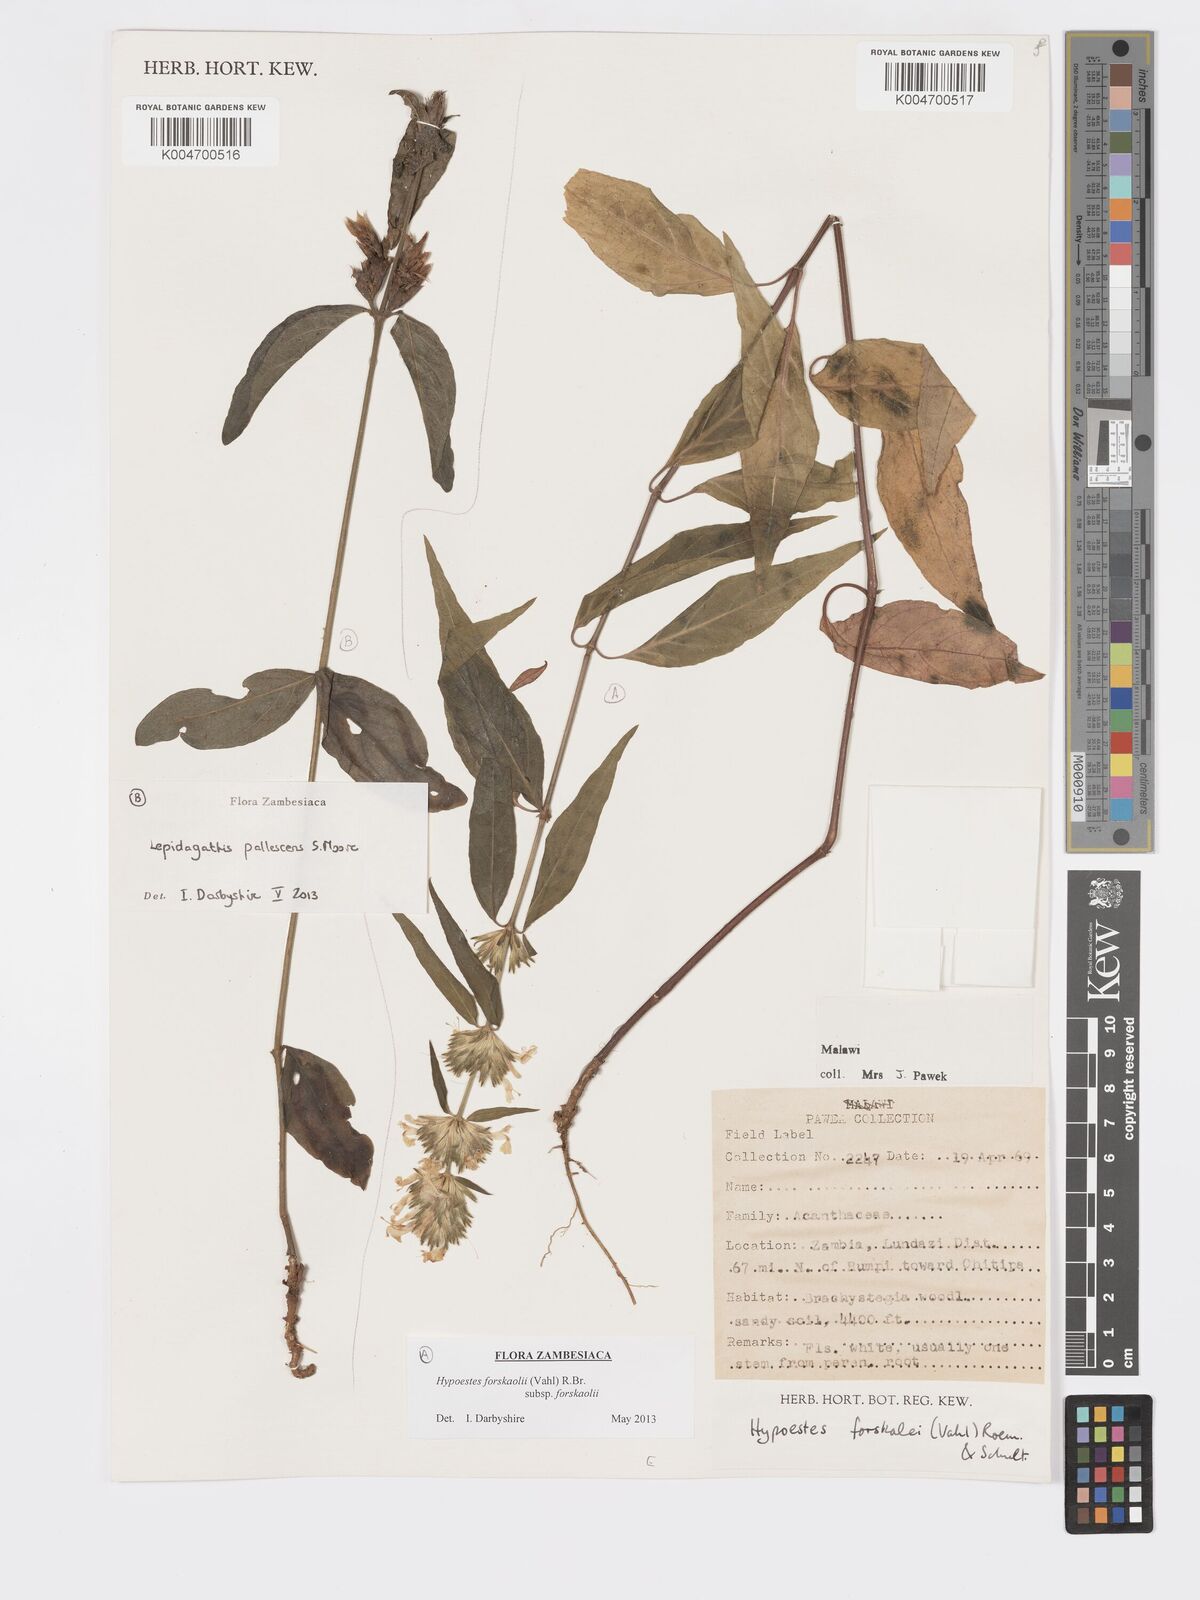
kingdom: Plantae
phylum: Tracheophyta
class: Magnoliopsida
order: Lamiales
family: Acanthaceae
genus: Hypoestes
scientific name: Hypoestes forskaolii
